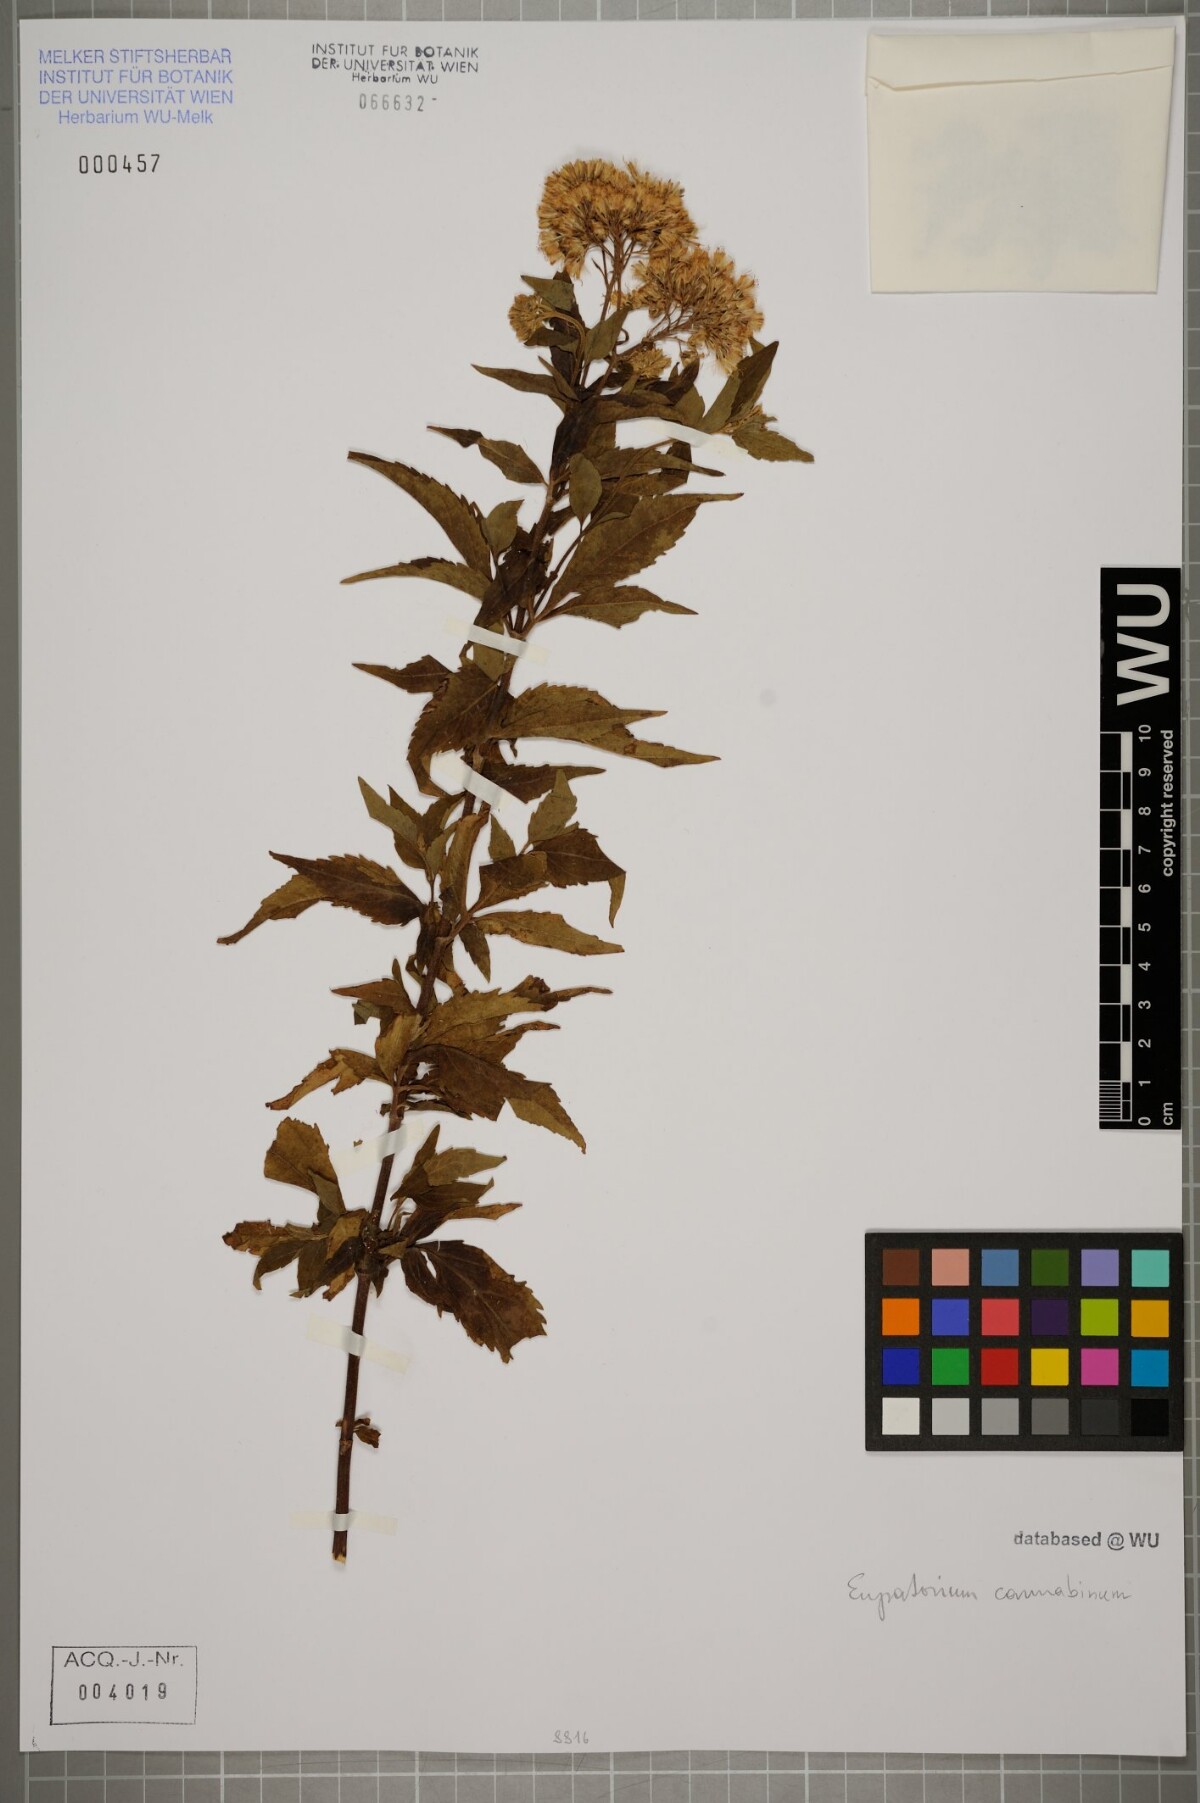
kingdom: Plantae
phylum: Tracheophyta
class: Magnoliopsida
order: Asterales
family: Asteraceae
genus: Eupatorium
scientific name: Eupatorium cannabinum
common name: Hemp-agrimony
